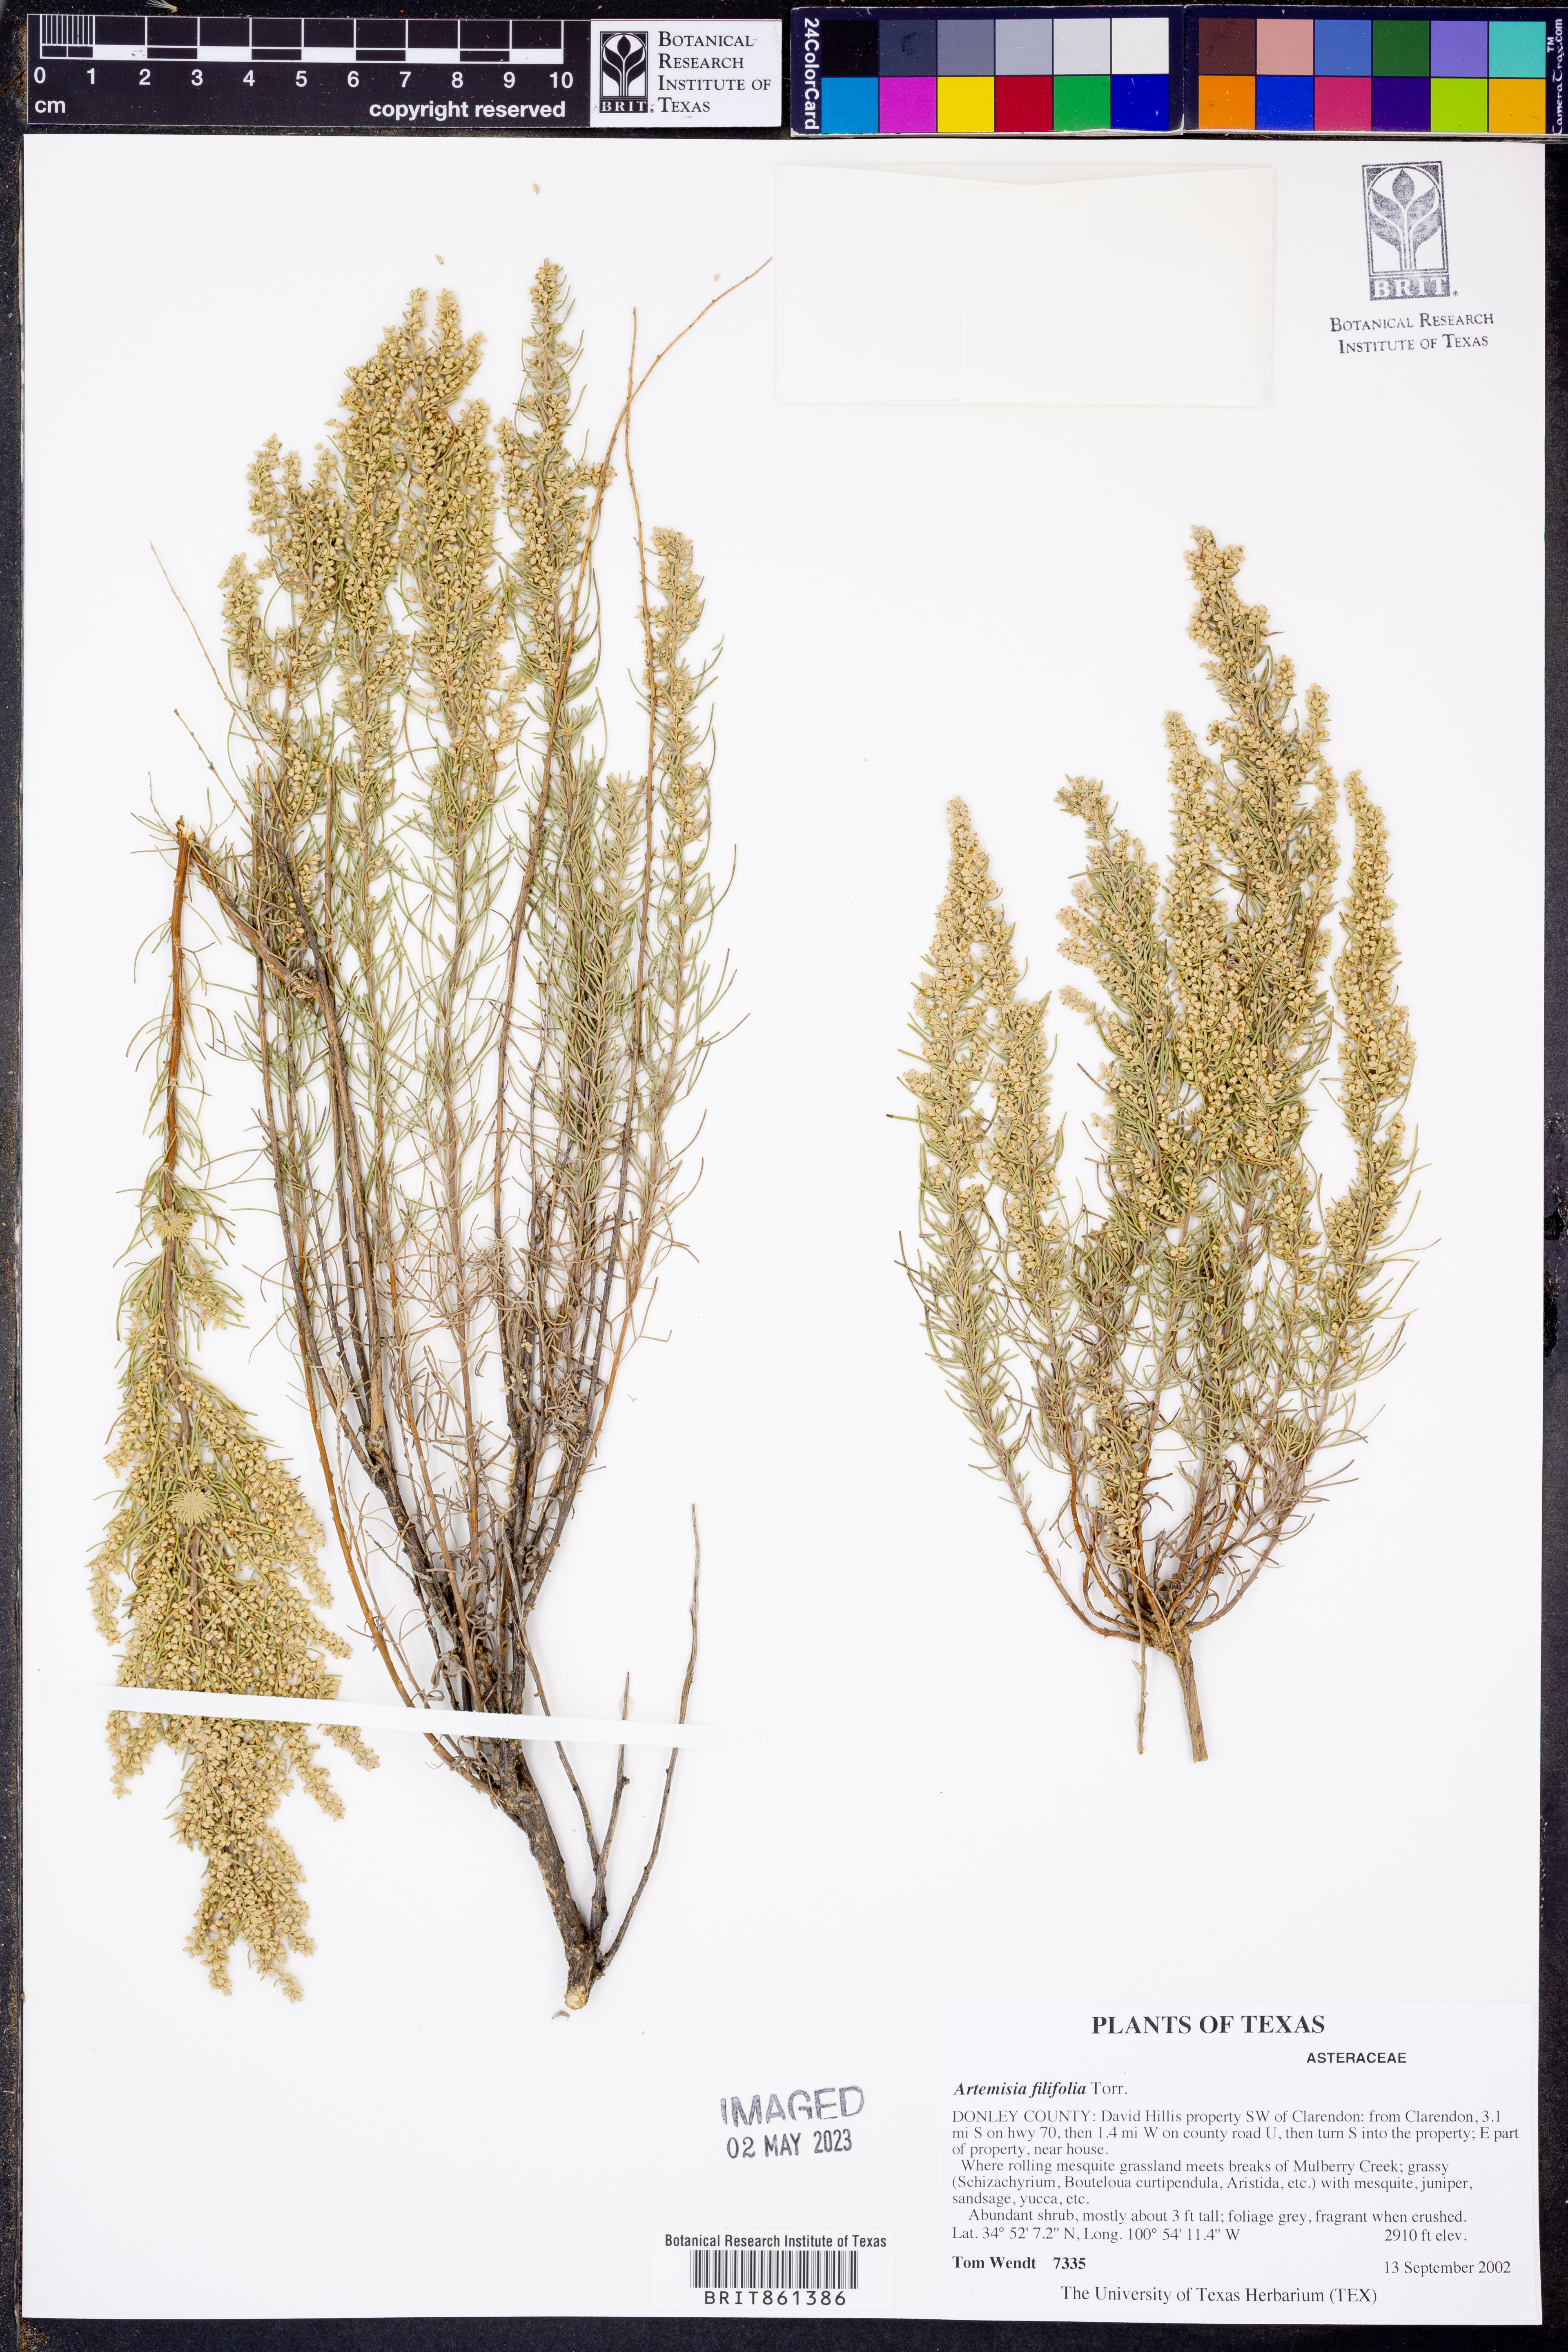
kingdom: Plantae
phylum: Tracheophyta
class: Magnoliopsida
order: Asterales
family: Asteraceae
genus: Artemisia
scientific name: Artemisia filifolia
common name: Sand-sage
